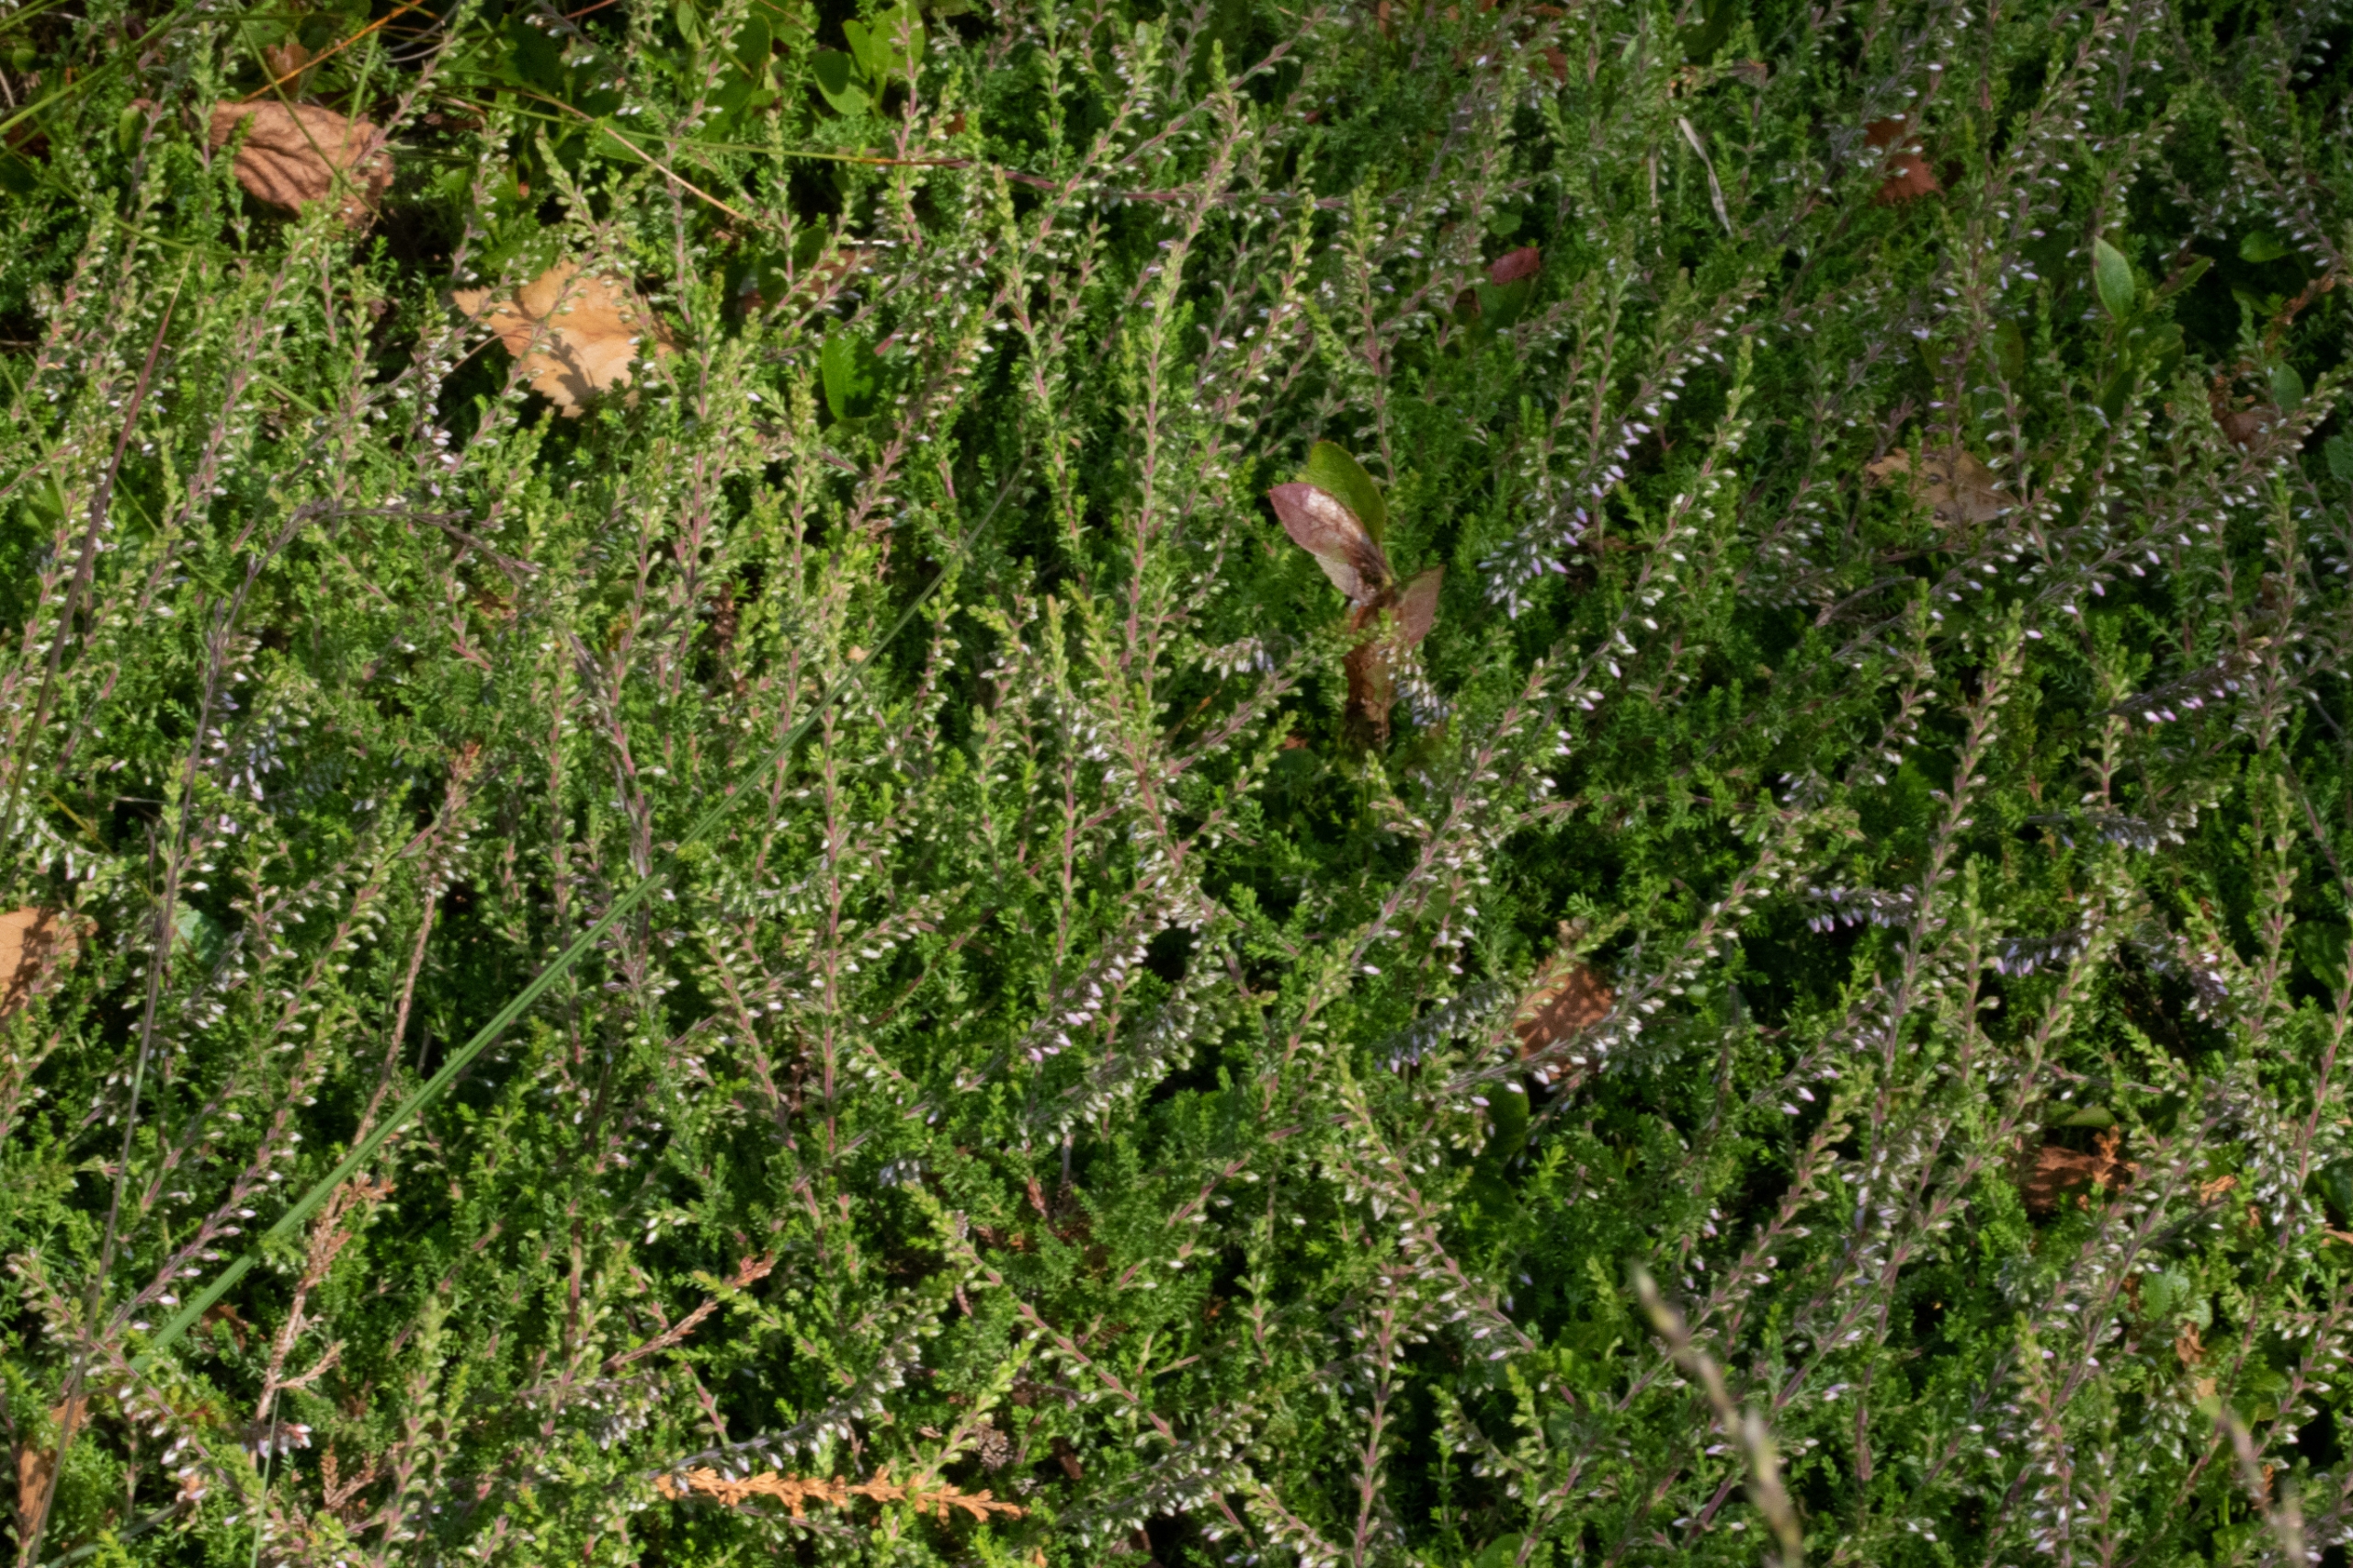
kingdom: Plantae
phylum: Tracheophyta
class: Magnoliopsida
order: Ericales
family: Ericaceae
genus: Calluna
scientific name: Calluna vulgaris
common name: Hedelyng
